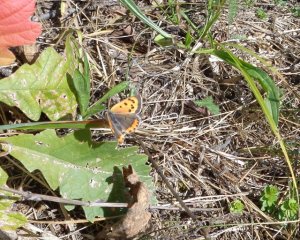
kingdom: Animalia
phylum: Arthropoda
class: Insecta
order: Lepidoptera
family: Lycaenidae
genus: Lycaena
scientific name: Lycaena phlaeas
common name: American Copper
